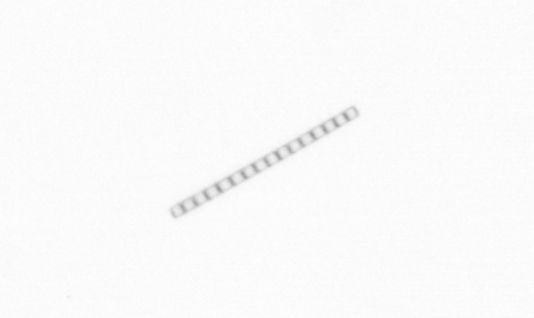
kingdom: Chromista
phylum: Ochrophyta
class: Bacillariophyceae
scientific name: Bacillariophyceae
